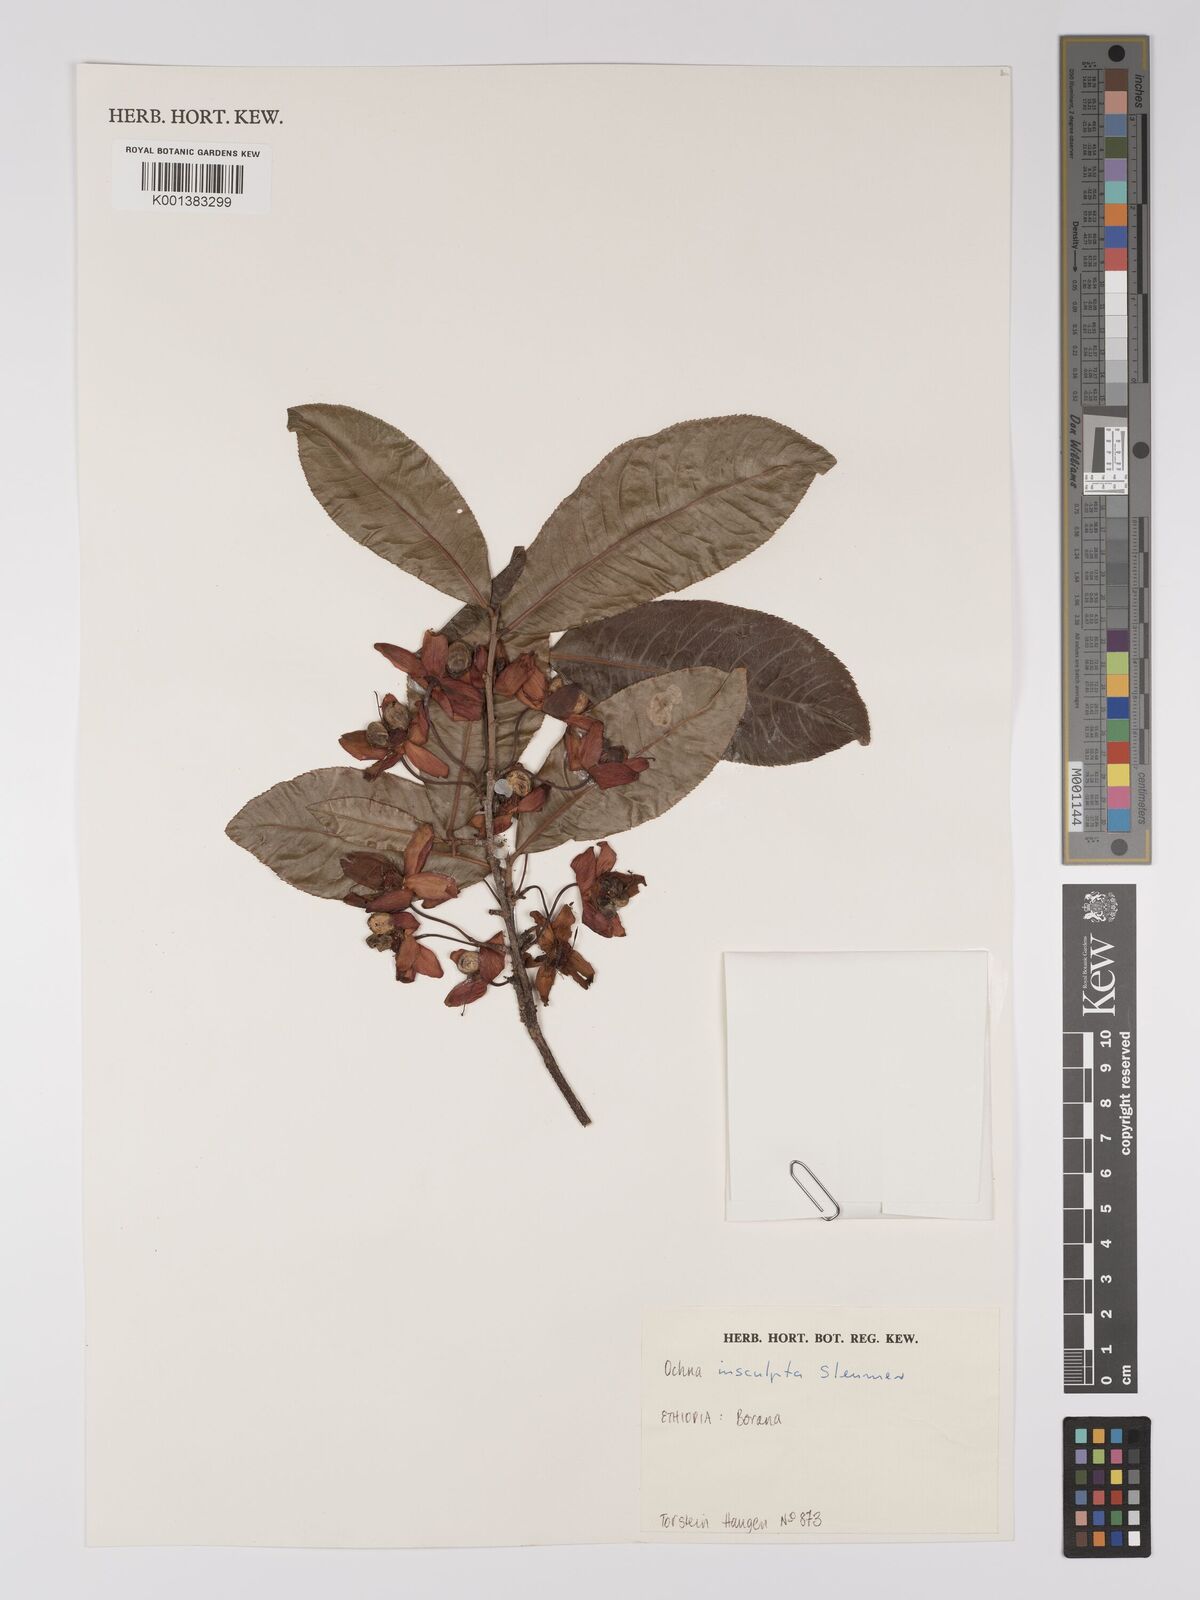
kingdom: Plantae
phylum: Tracheophyta
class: Magnoliopsida
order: Malpighiales
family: Ochnaceae
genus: Ochna
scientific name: Ochna insculpta
